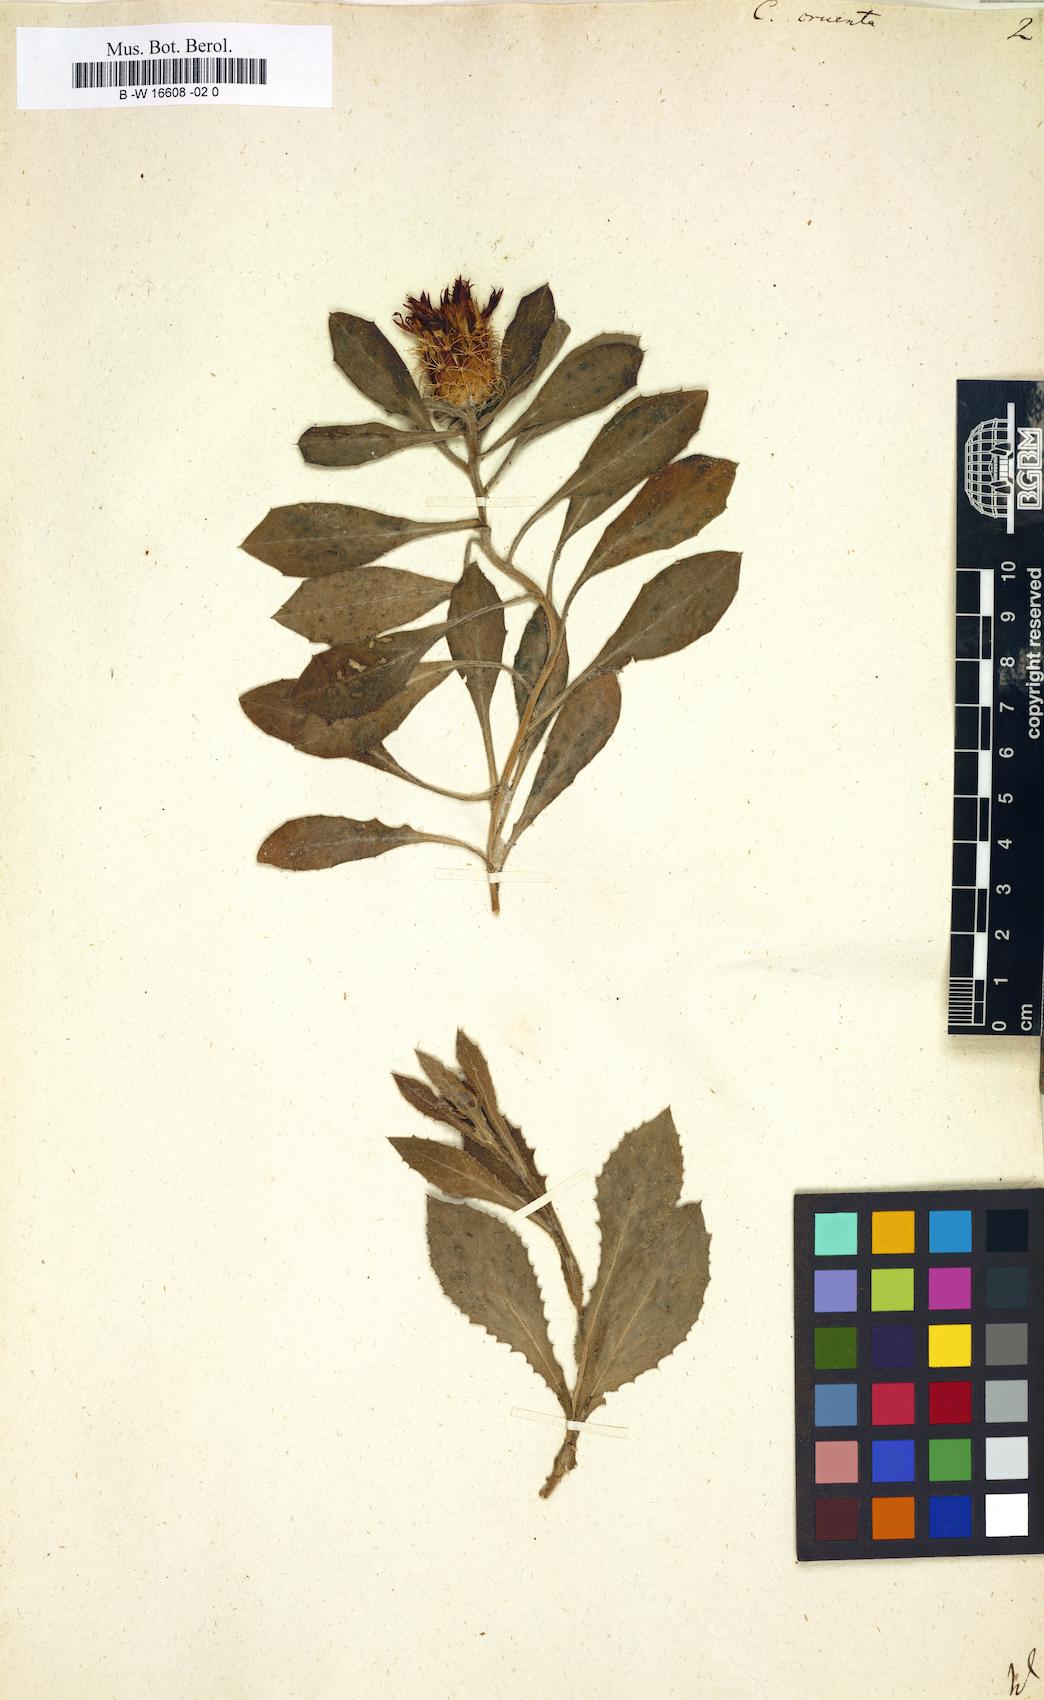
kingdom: Plantae
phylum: Tracheophyta
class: Magnoliopsida
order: Asterales
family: Asteraceae
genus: Centaurea
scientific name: Centaurea seridis
